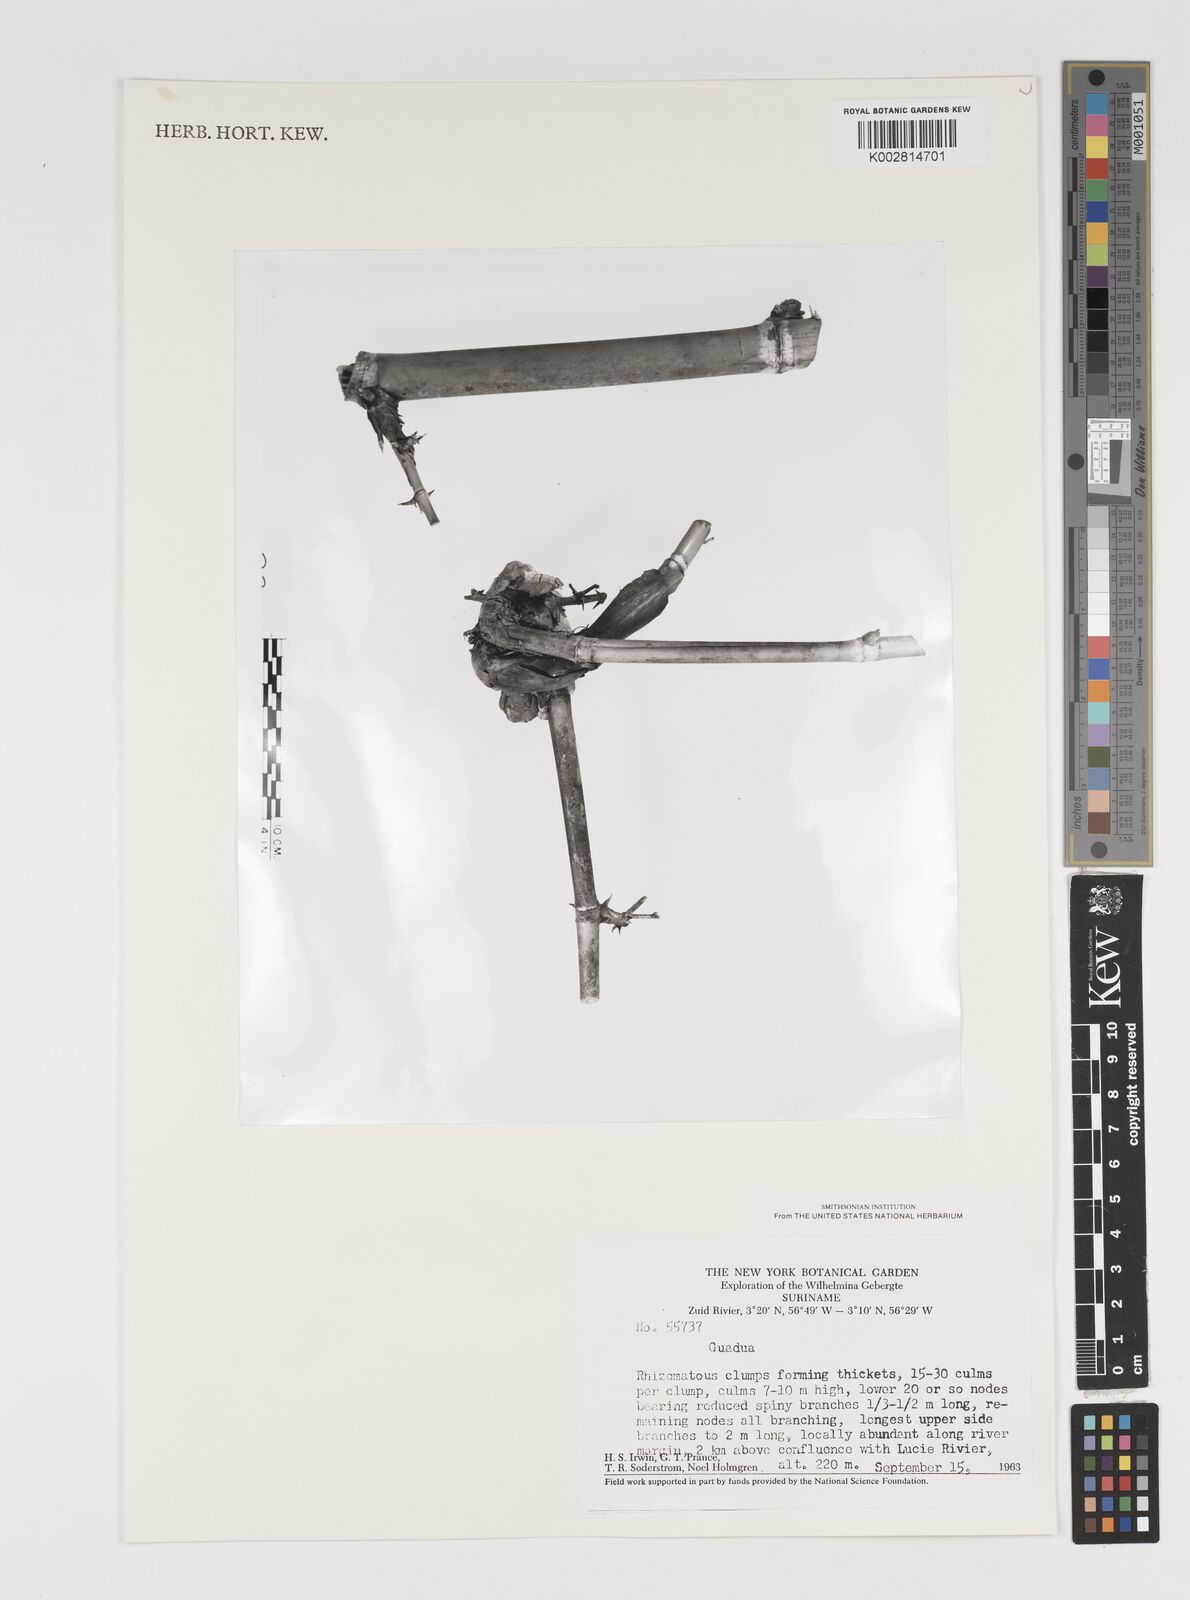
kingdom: Plantae
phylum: Tracheophyta
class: Liliopsida
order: Poales
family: Poaceae
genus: Guadua
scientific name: Guadua
